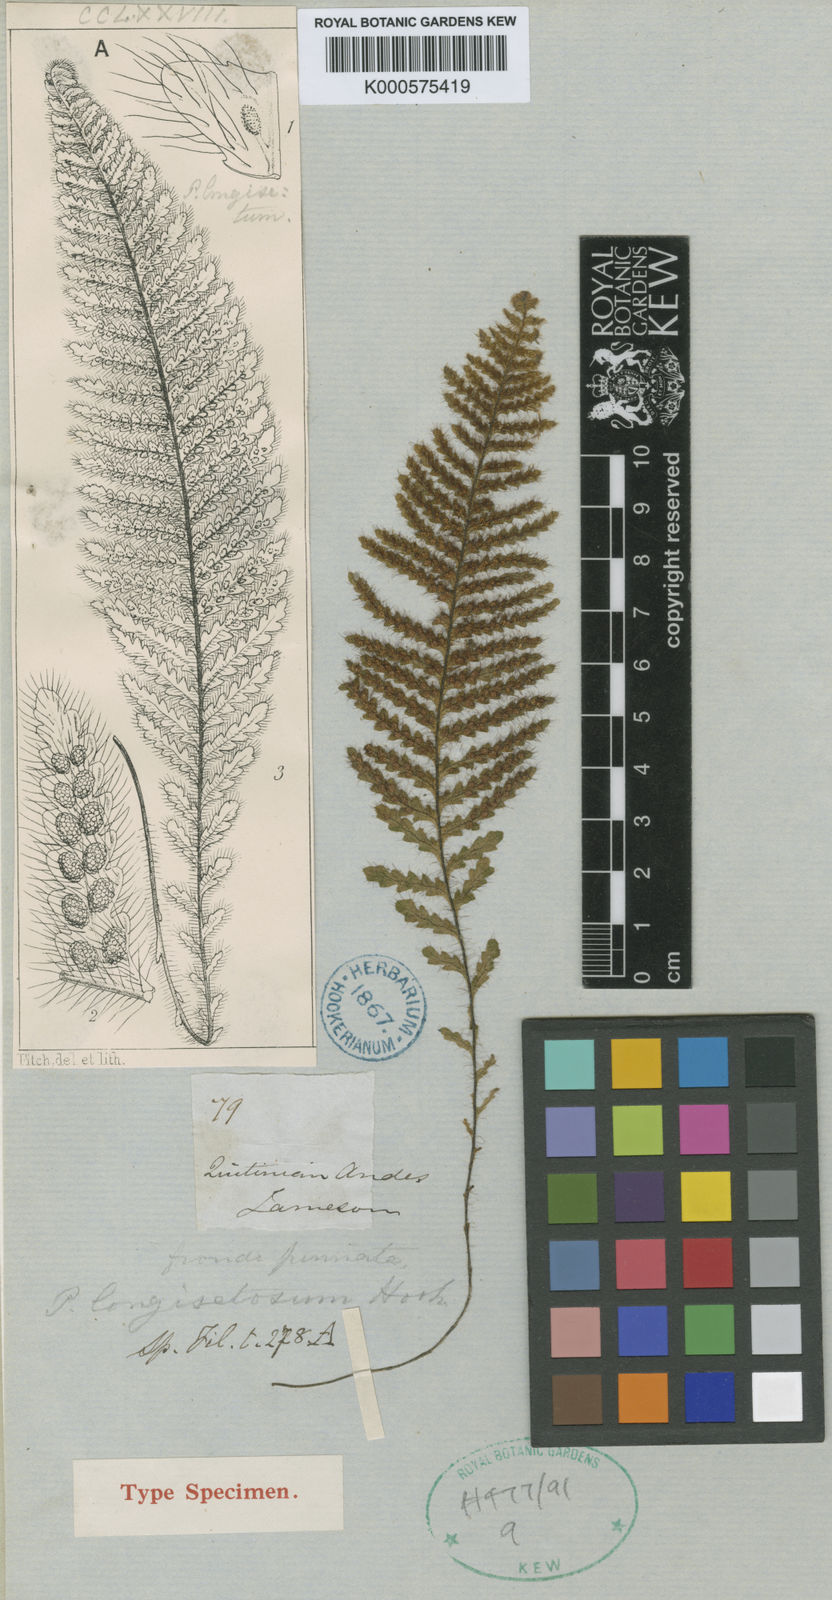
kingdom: Plantae
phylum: Tracheophyta
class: Polypodiopsida
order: Polypodiales
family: Polypodiaceae
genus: Moranopteris
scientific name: Moranopteris longisetosa
